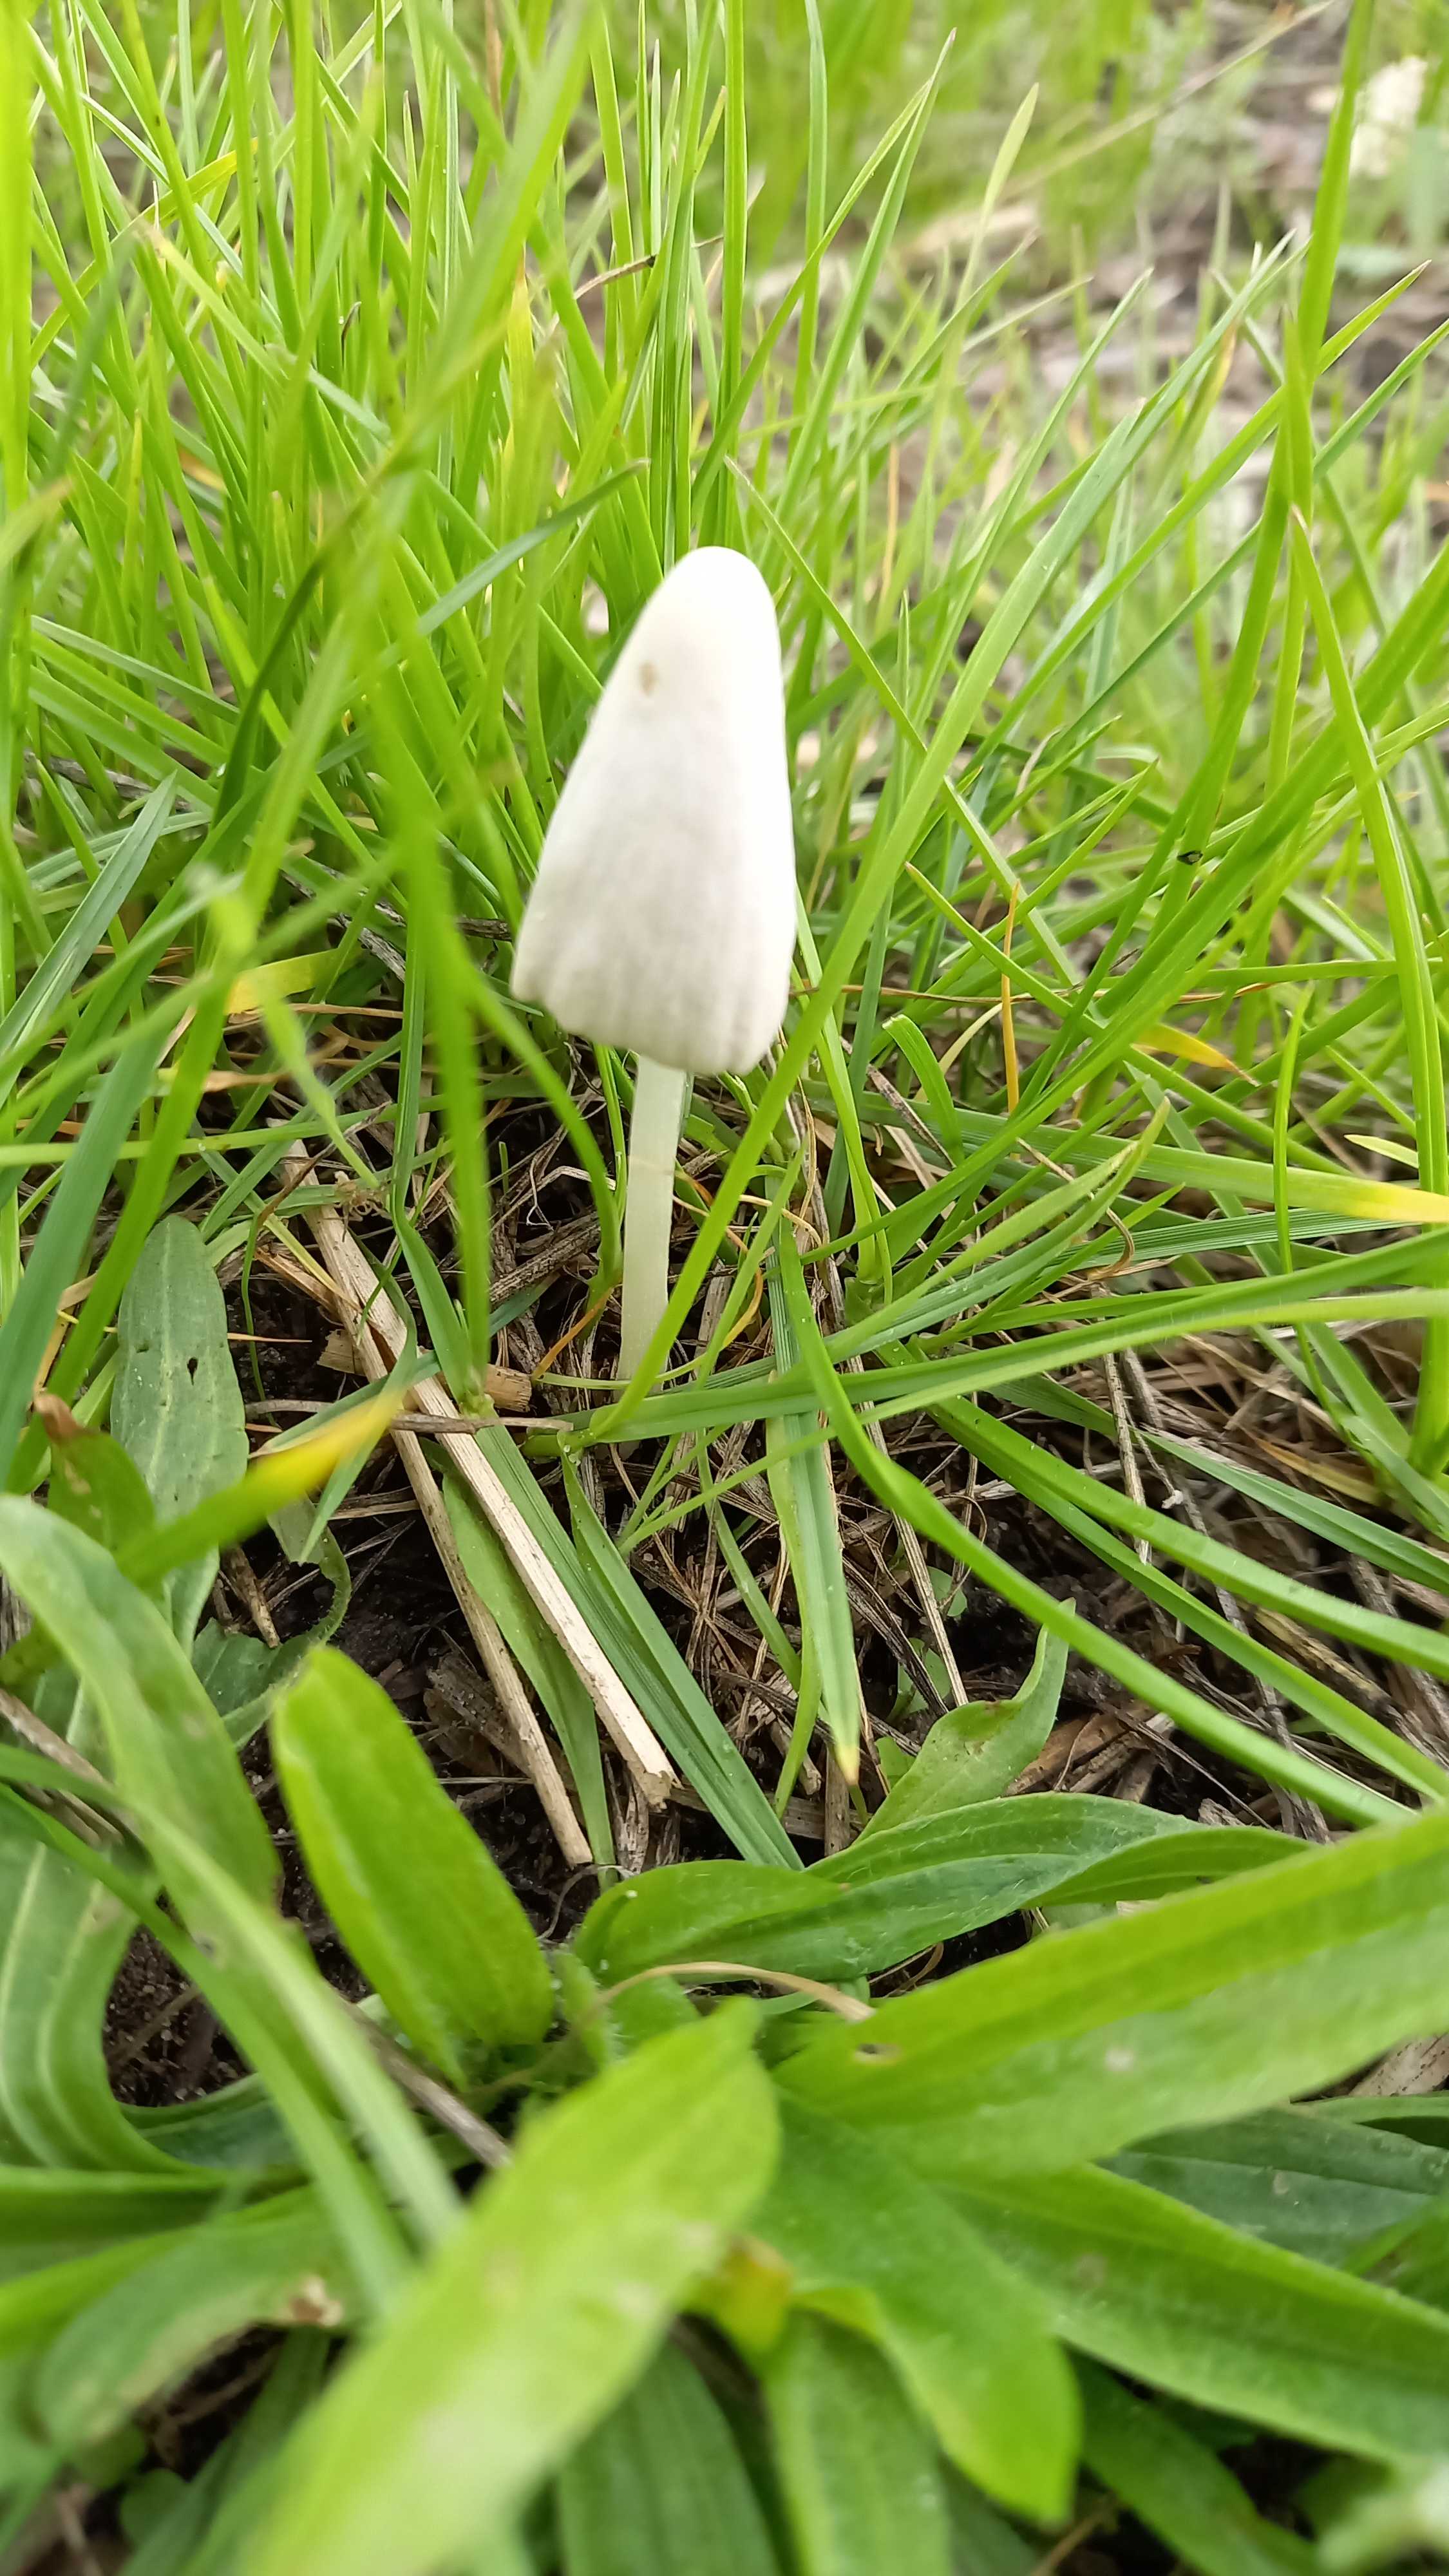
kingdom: Fungi
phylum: Basidiomycota
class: Agaricomycetes
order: Agaricales
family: Bolbitiaceae
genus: Conocybe
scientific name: Conocybe apala
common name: mælkehvid keglehat
